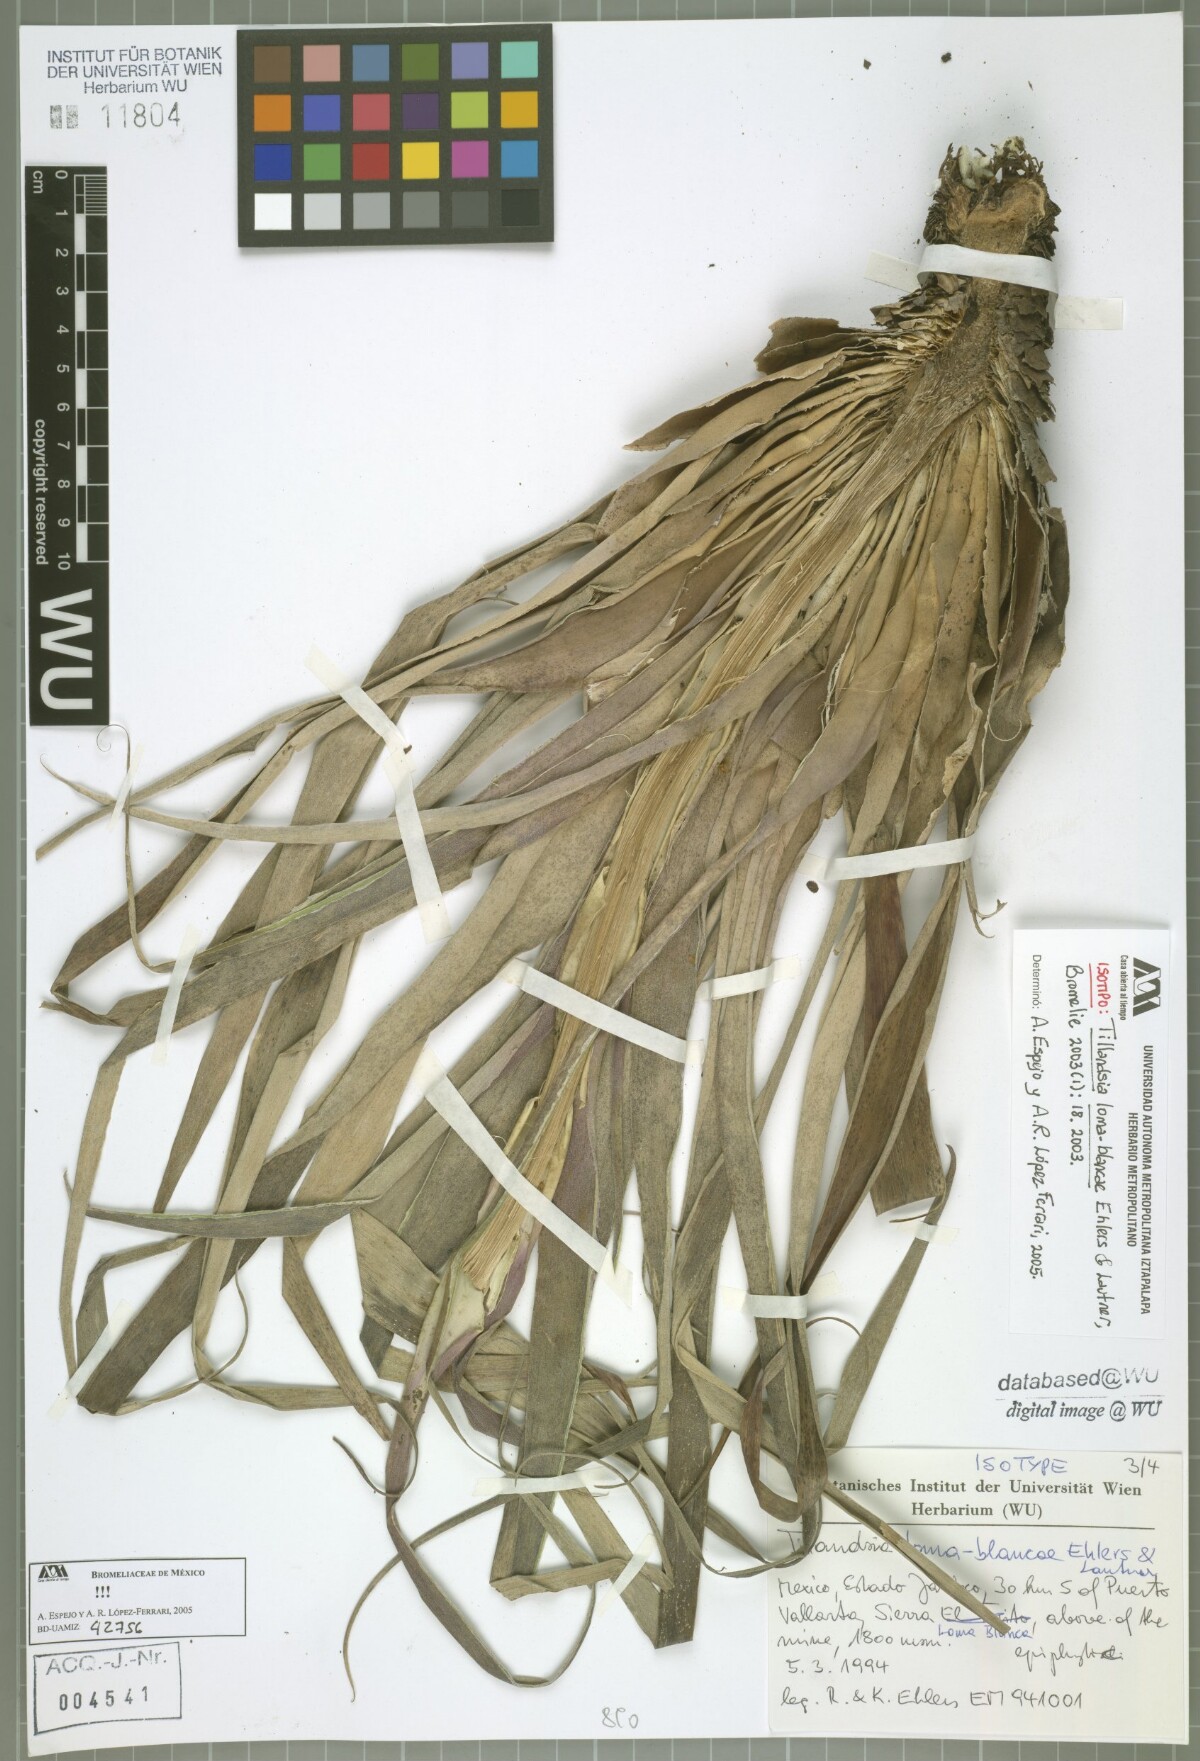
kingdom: Plantae
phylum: Tracheophyta
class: Liliopsida
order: Poales
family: Bromeliaceae
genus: Tillandsia
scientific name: Tillandsia loma-blancae
